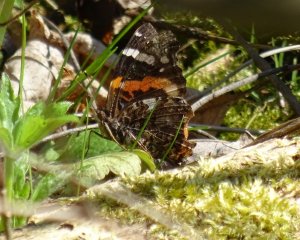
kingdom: Animalia
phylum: Arthropoda
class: Insecta
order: Lepidoptera
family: Nymphalidae
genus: Vanessa
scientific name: Vanessa atalanta
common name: Red Admiral
